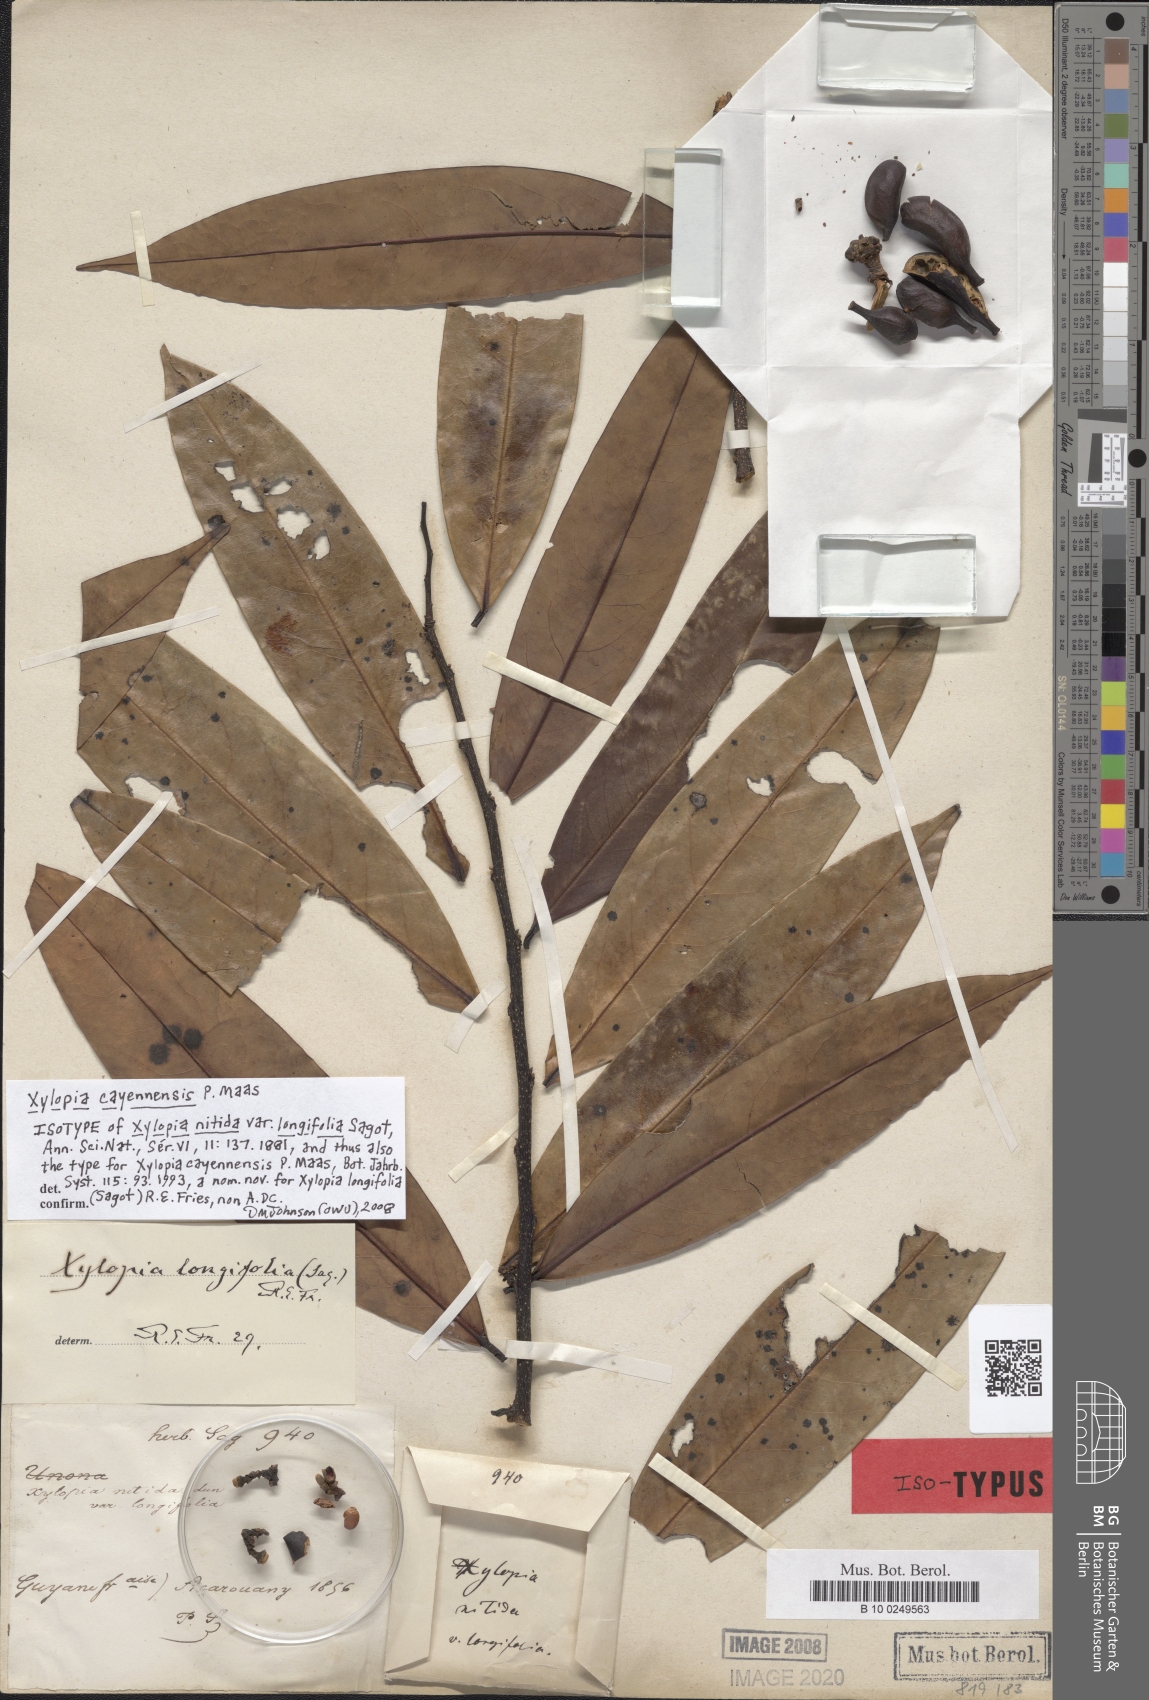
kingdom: Plantae
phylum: Tracheophyta
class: Magnoliopsida
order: Magnoliales
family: Annonaceae
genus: Xylopia
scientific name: Xylopia cayennensis
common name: Black maho
